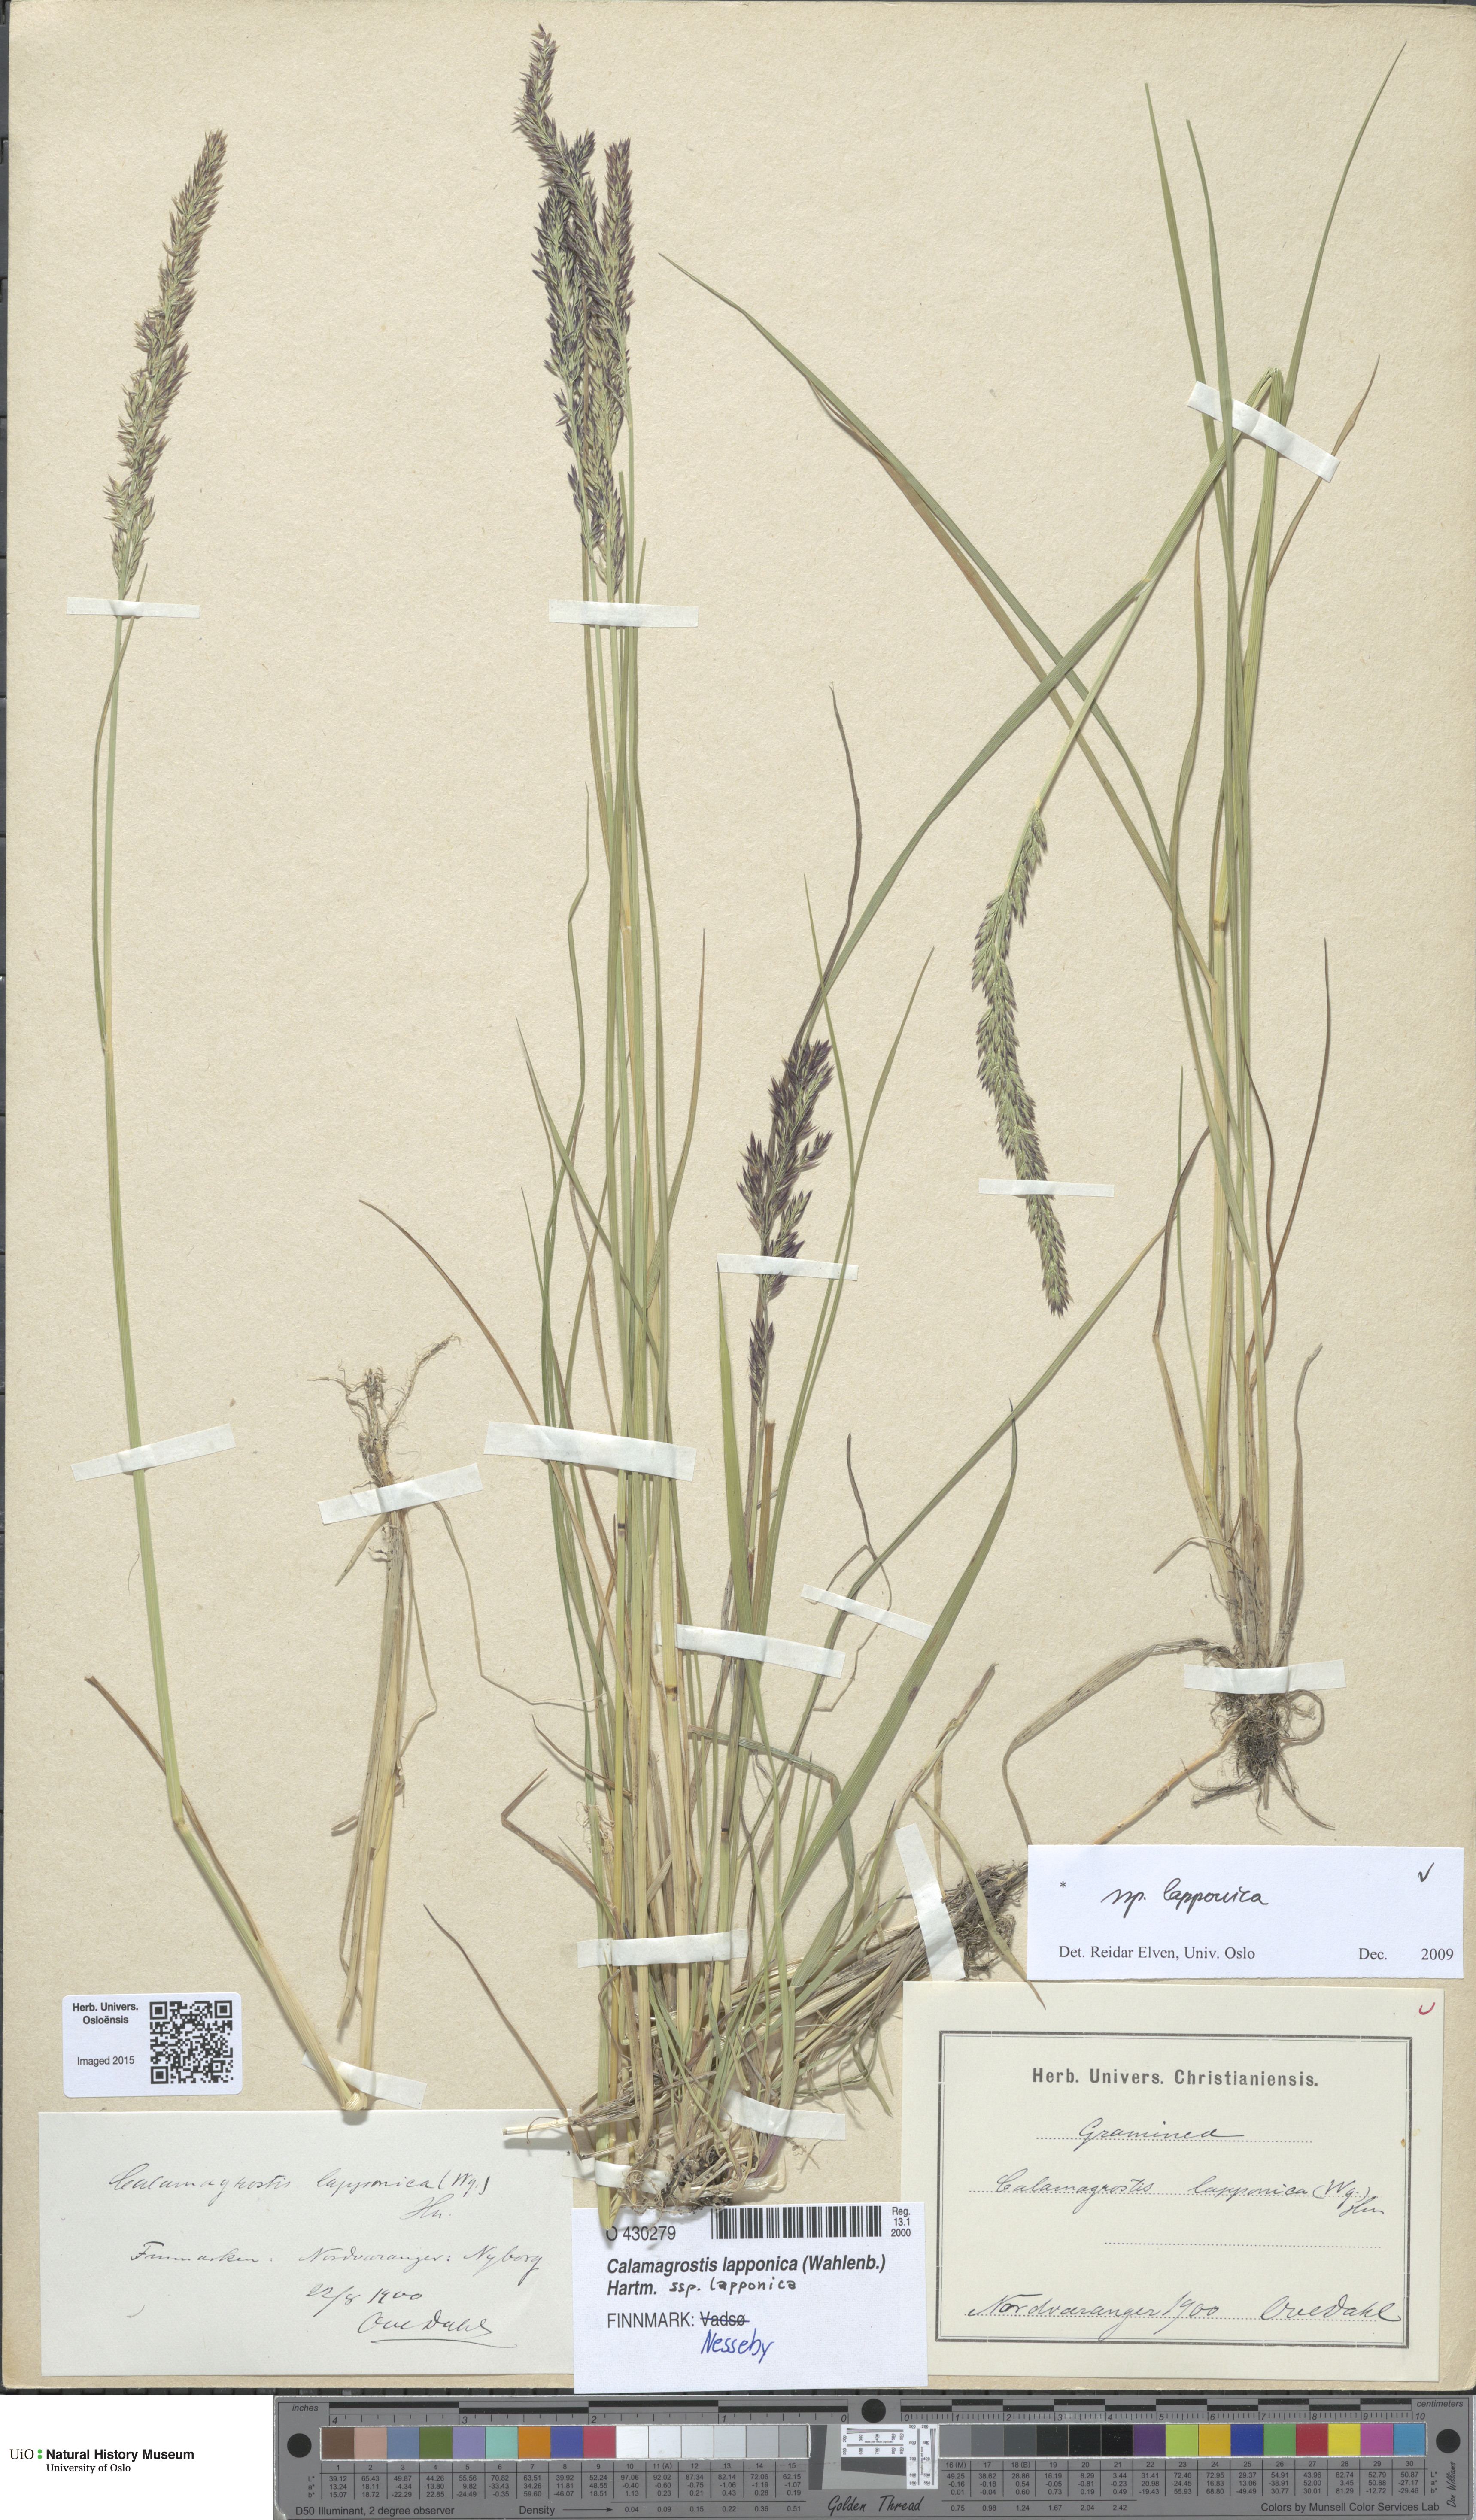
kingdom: Plantae
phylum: Tracheophyta
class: Liliopsida
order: Poales
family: Poaceae
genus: Calamagrostis
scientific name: Calamagrostis lapponica
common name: Lapland reedgrass
